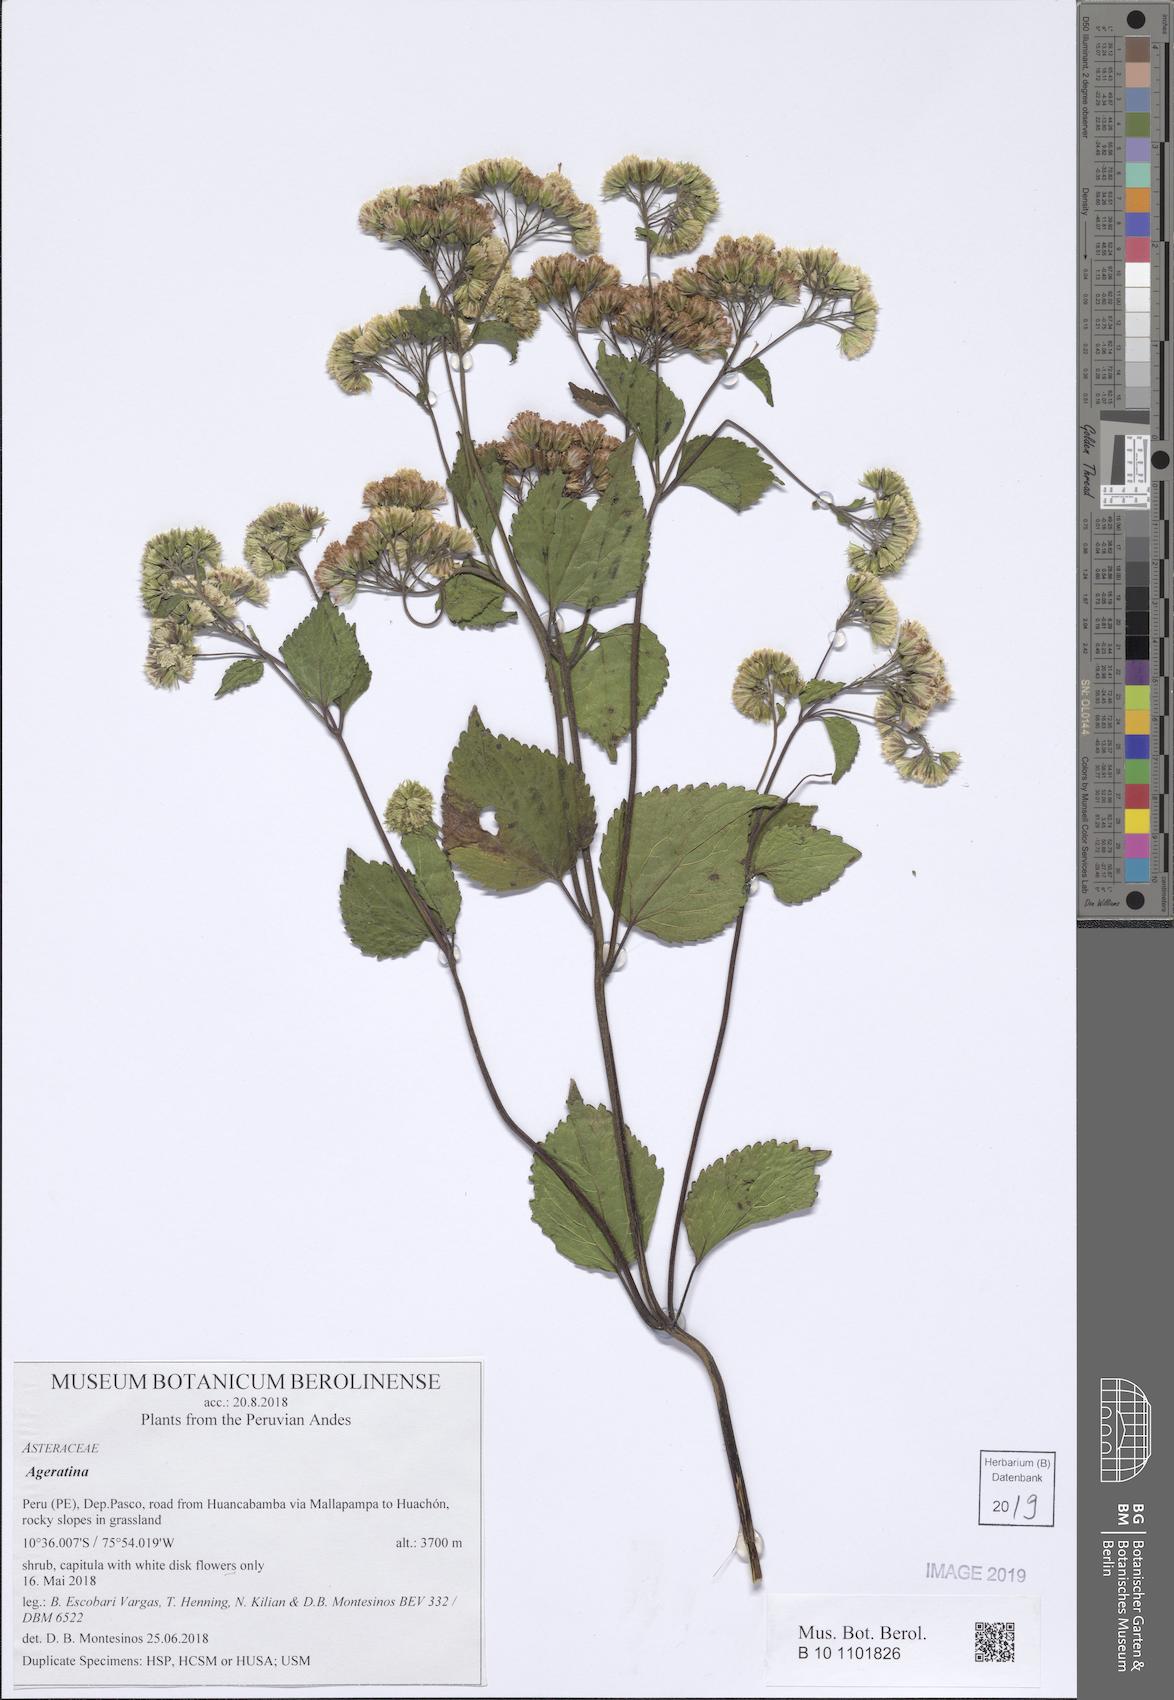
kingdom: Plantae
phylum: Tracheophyta
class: Magnoliopsida
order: Asterales
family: Asteraceae
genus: Ageratina
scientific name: Ageratina
